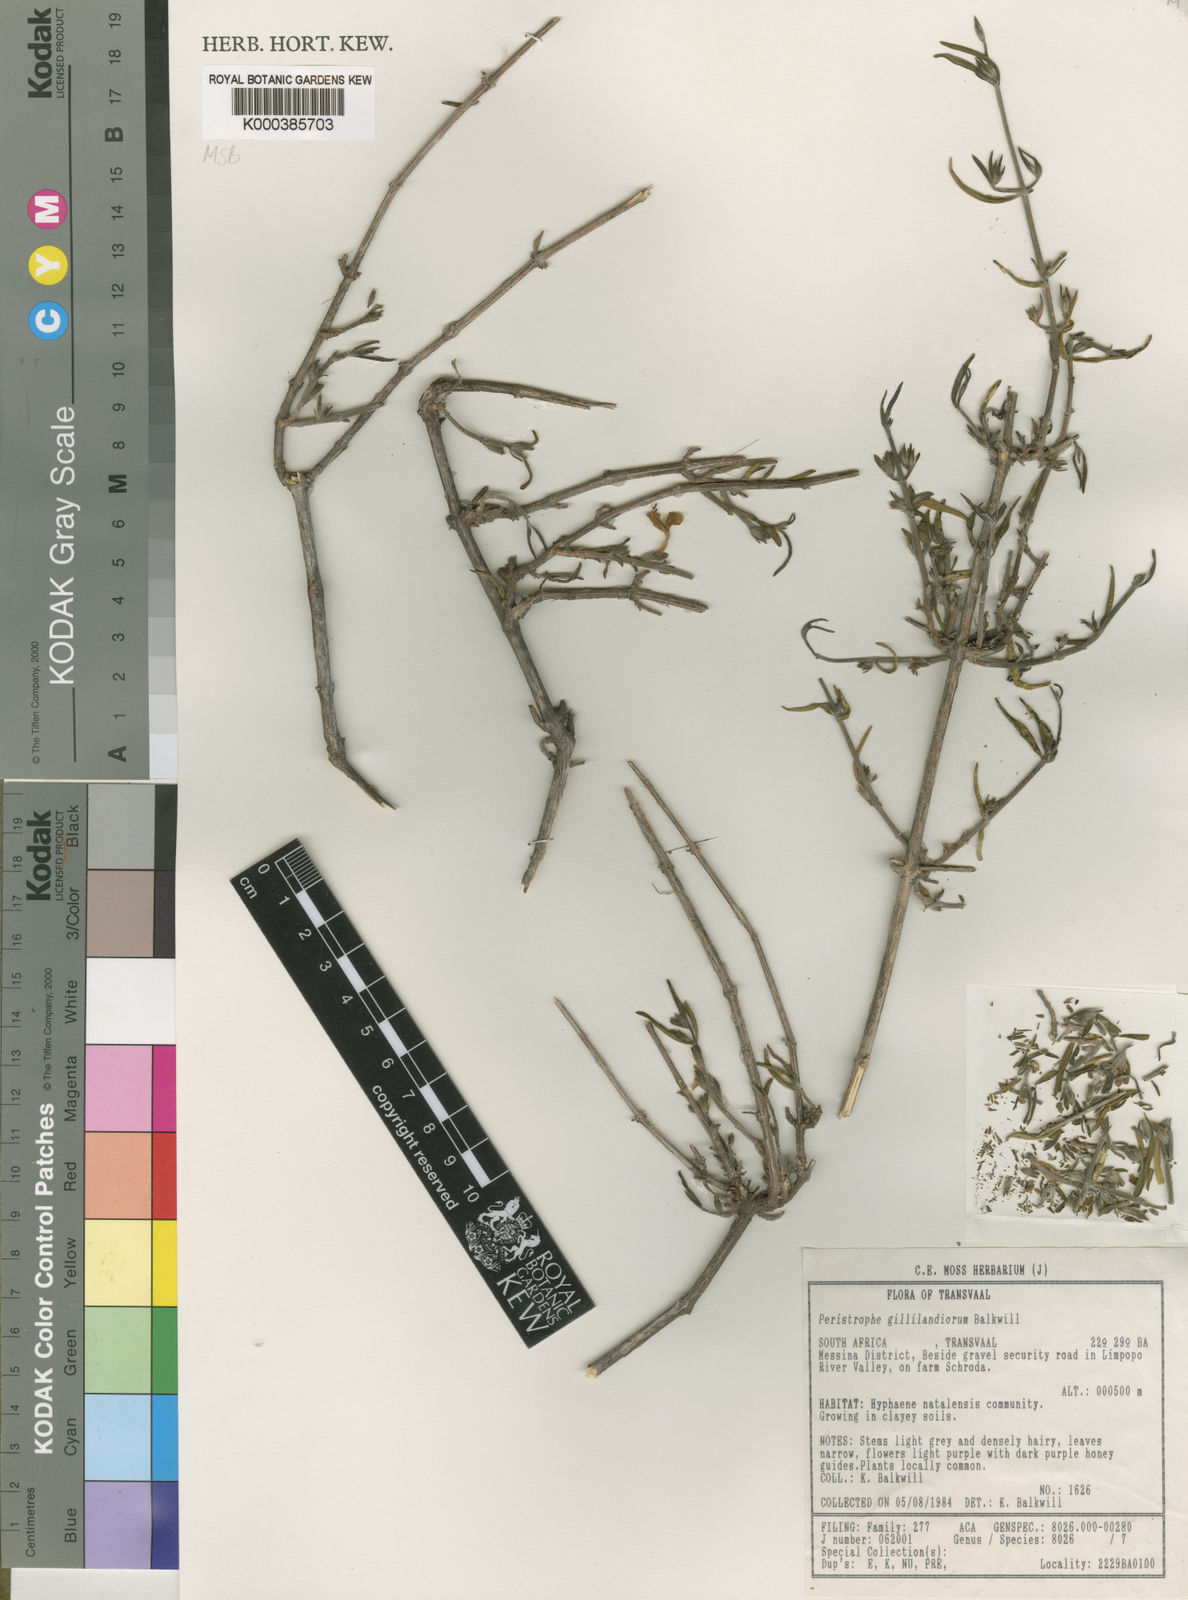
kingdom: Plantae
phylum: Tracheophyta
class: Magnoliopsida
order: Lamiales
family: Acanthaceae
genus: Dicliptera
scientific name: Dicliptera gillilandiorum
